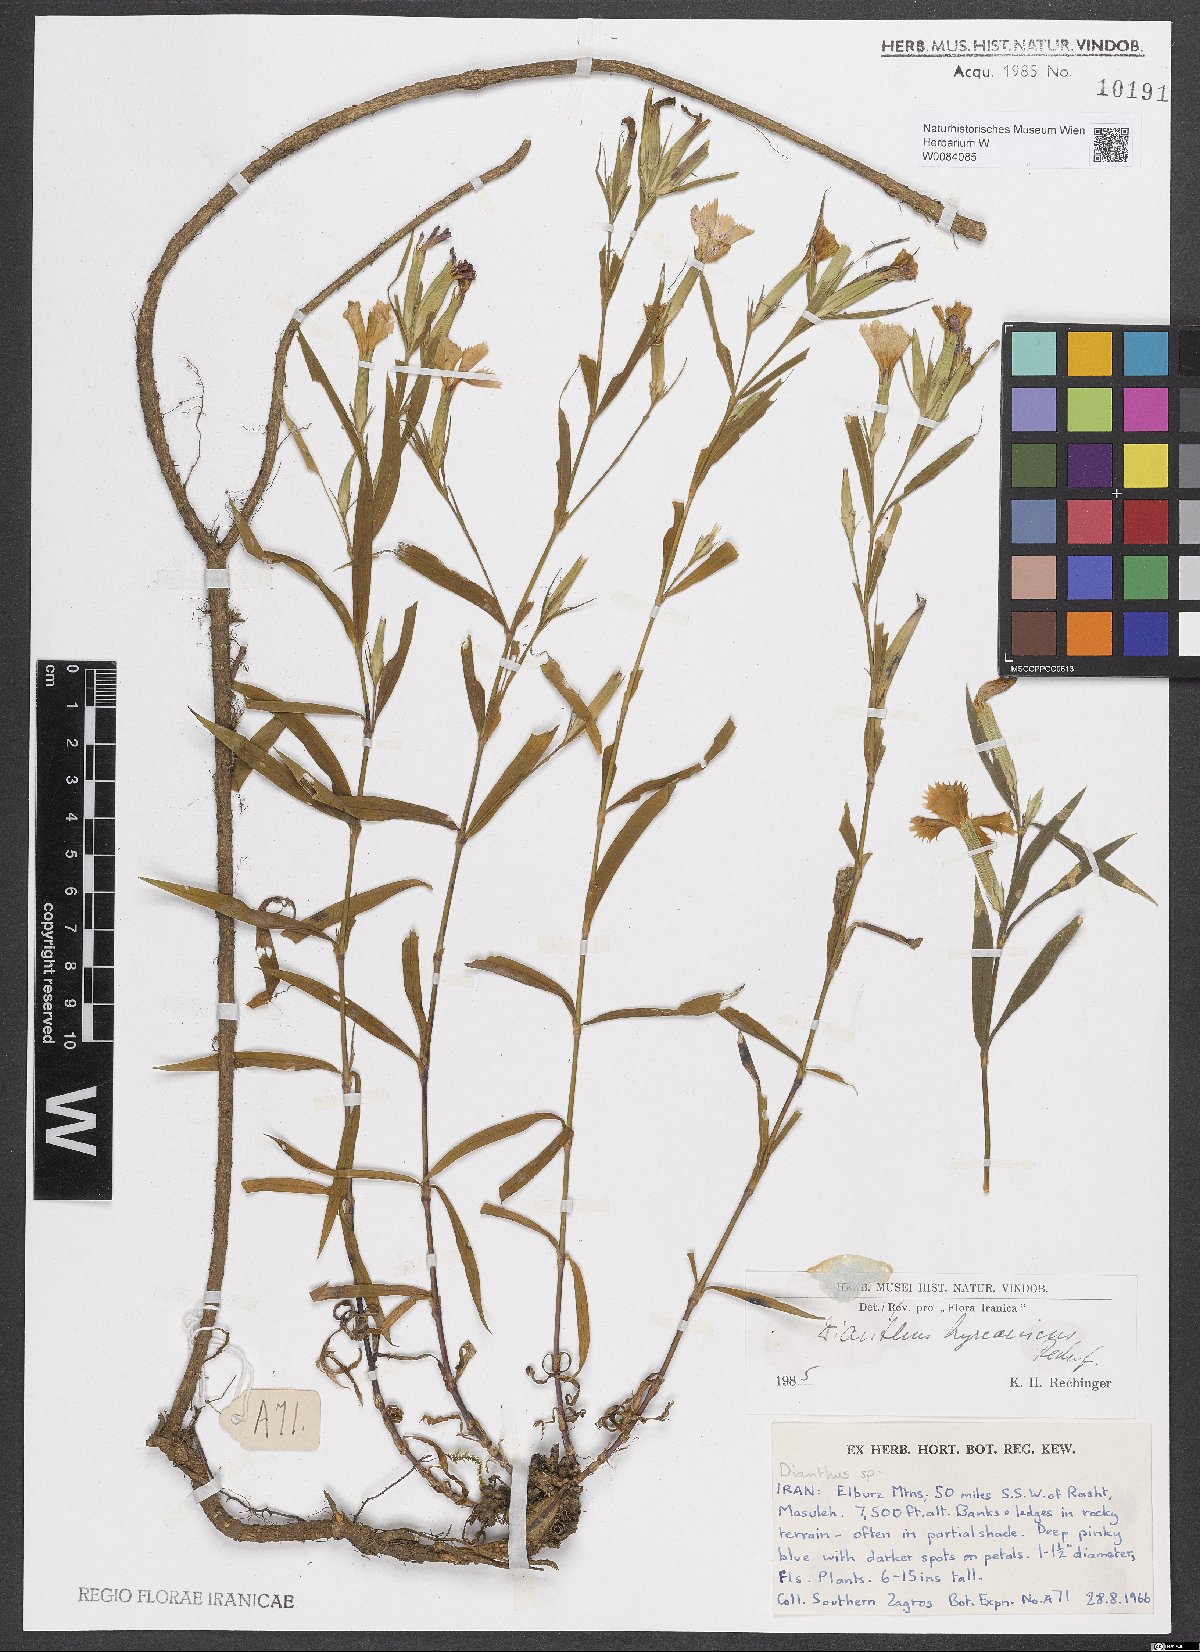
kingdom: Plantae
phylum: Tracheophyta
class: Magnoliopsida
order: Caryophyllales
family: Caryophyllaceae
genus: Dianthus
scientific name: Dianthus hyrcanicus
